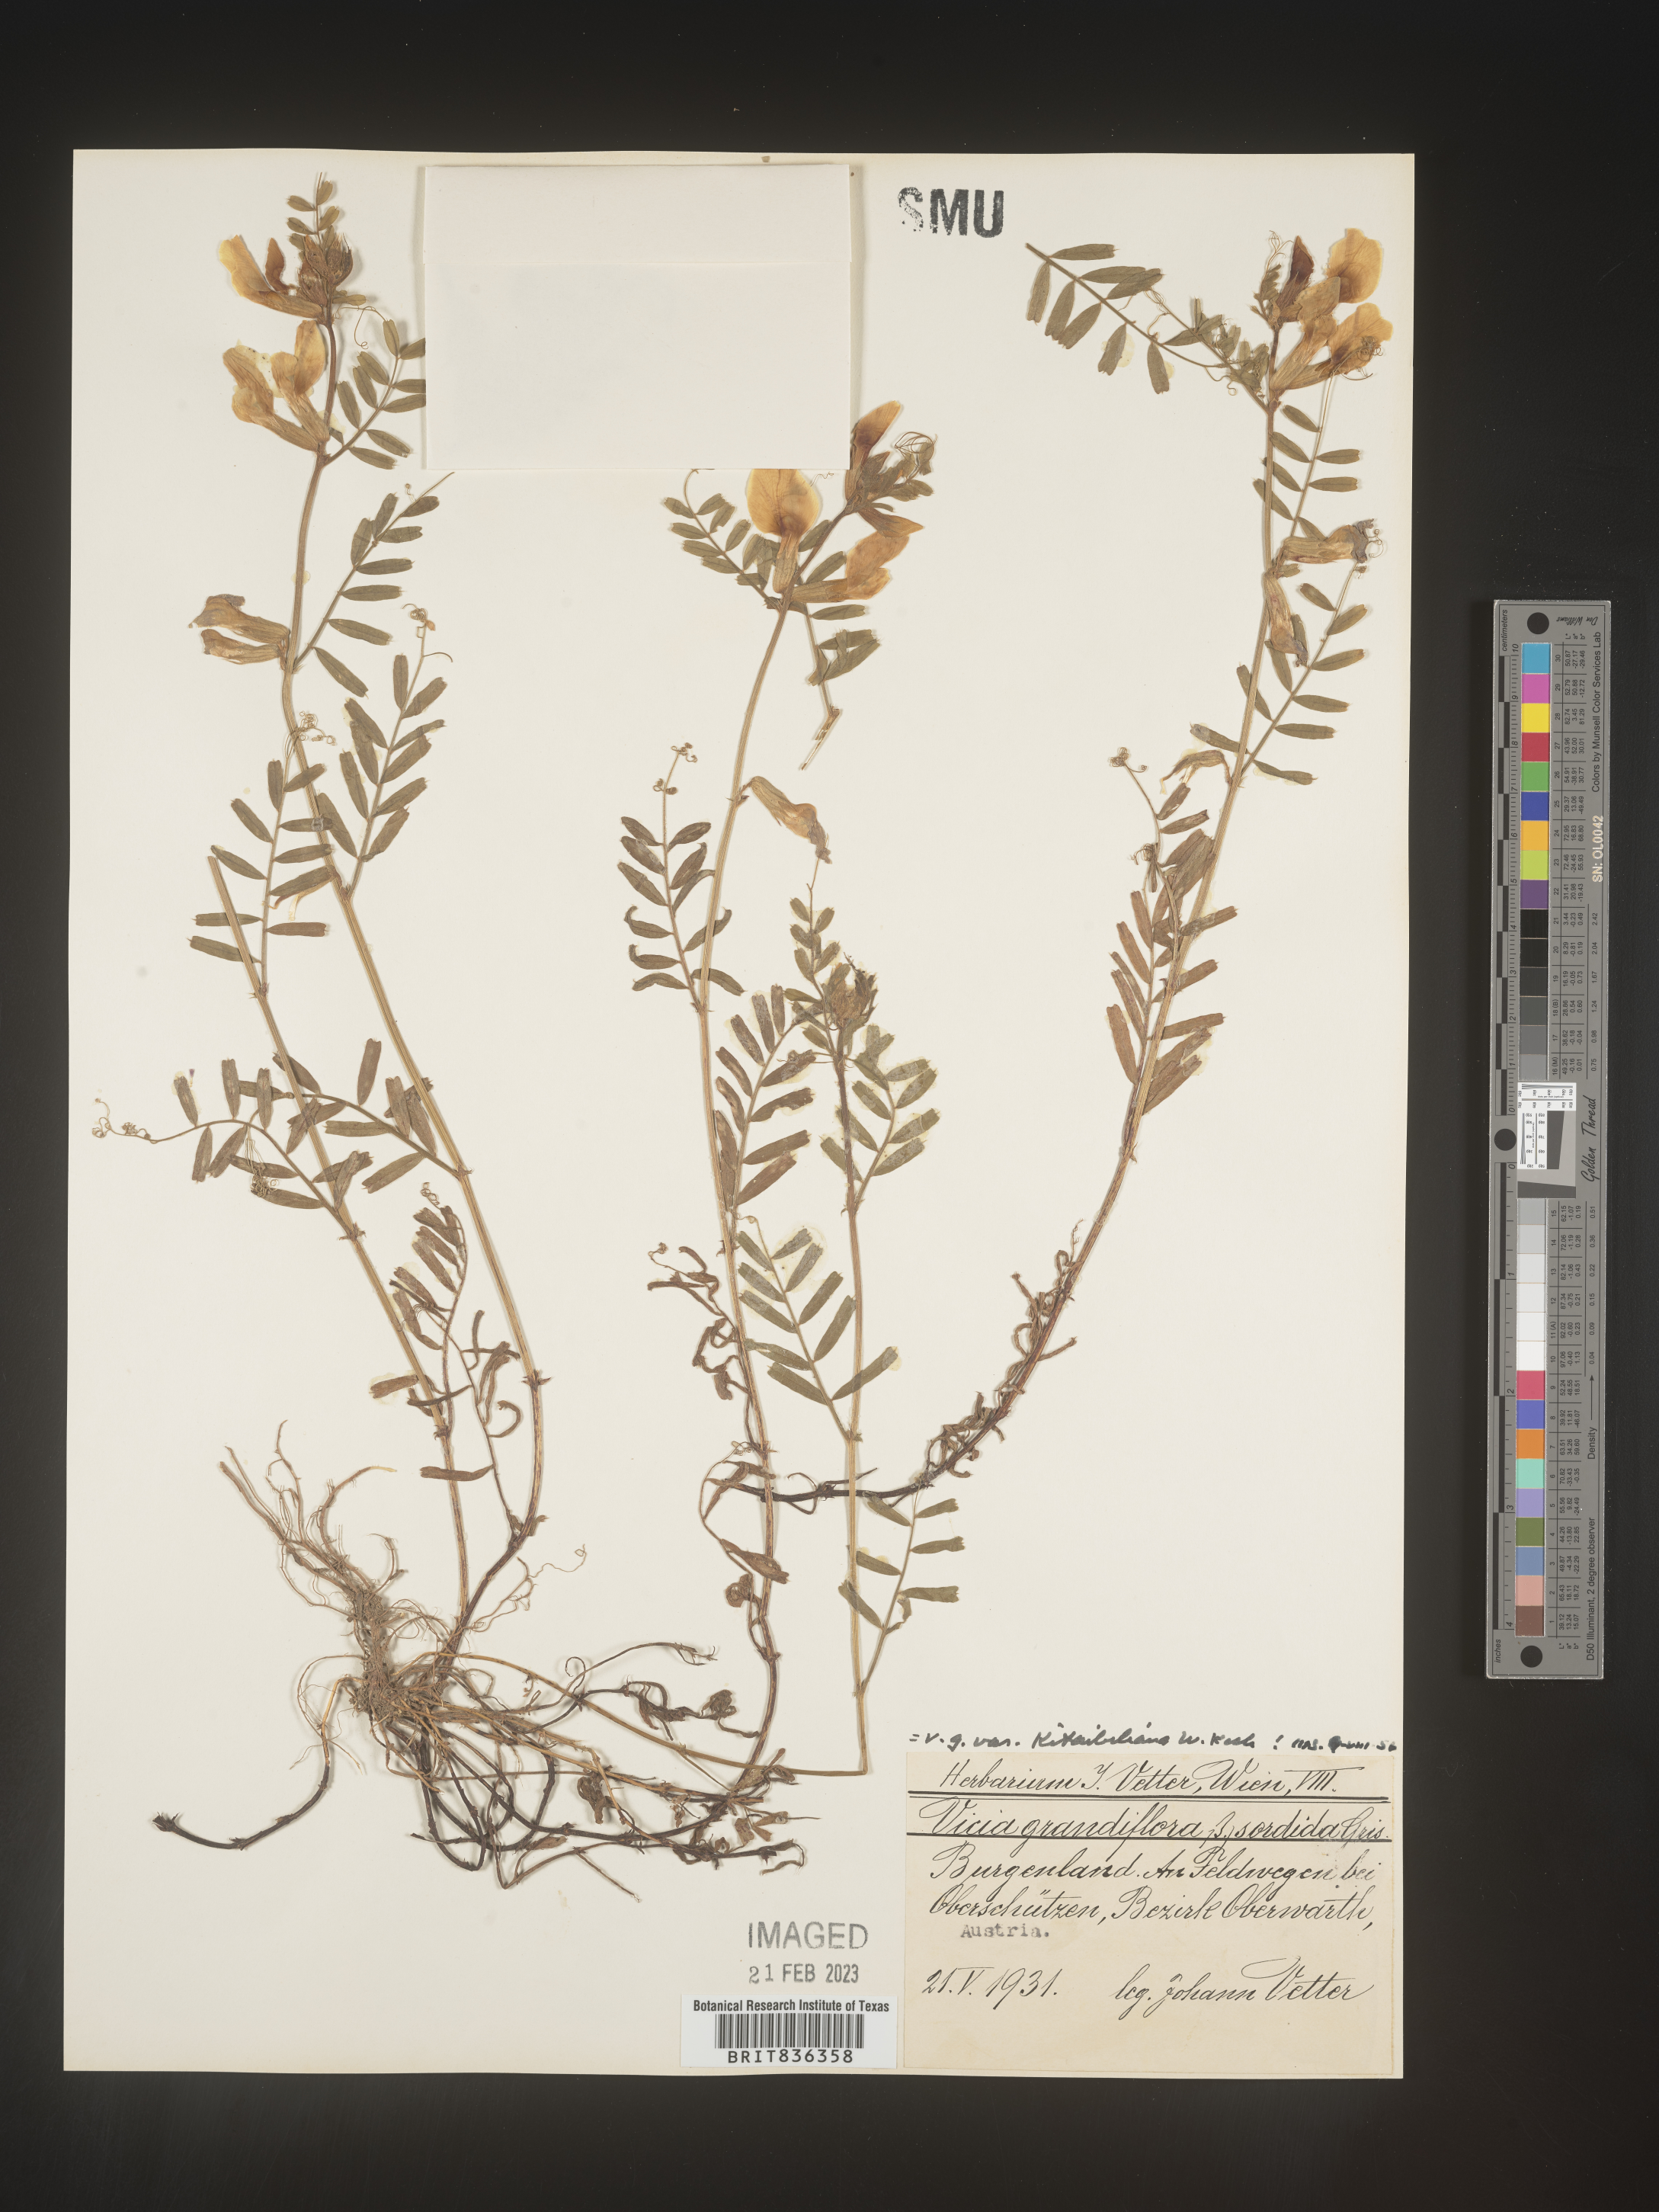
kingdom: Plantae
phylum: Tracheophyta
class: Magnoliopsida
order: Fabales
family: Fabaceae
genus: Vicia
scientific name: Vicia
